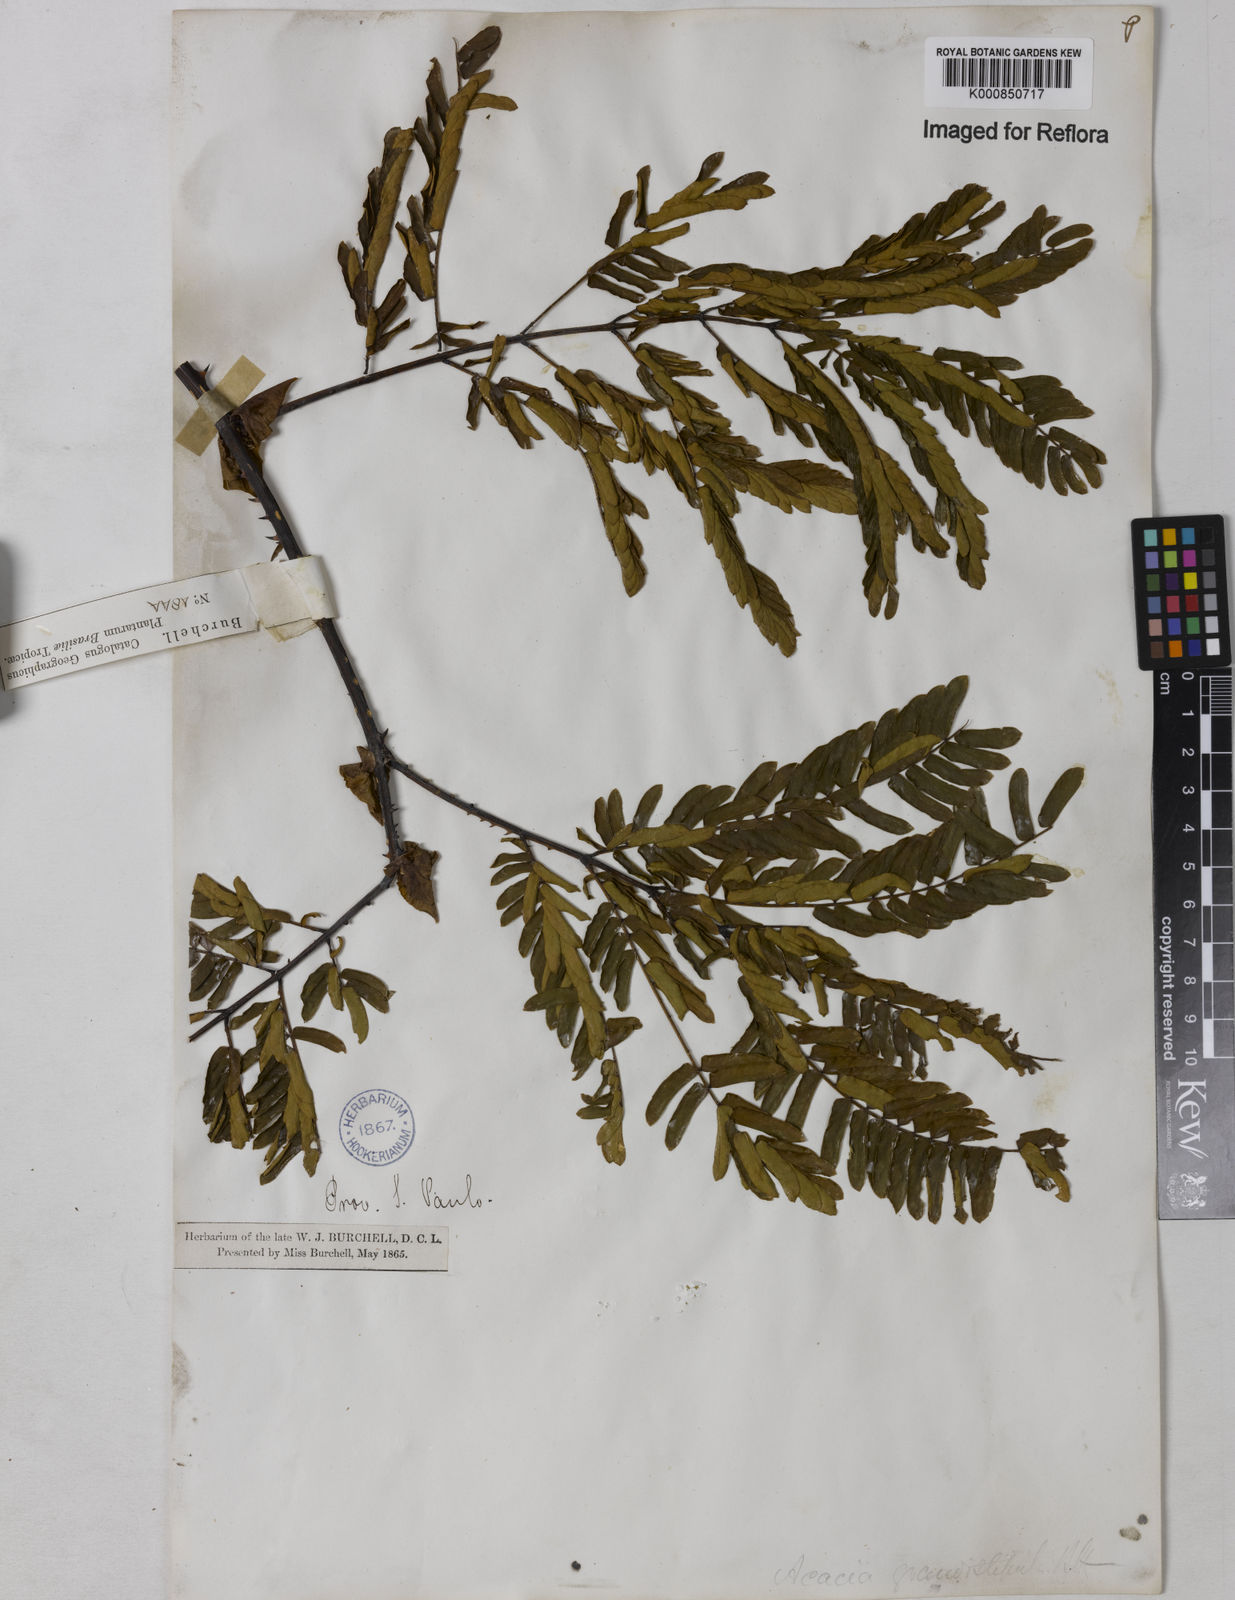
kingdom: Plantae
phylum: Tracheophyta
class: Magnoliopsida
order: Fabales
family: Fabaceae
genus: Senegalia
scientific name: Senegalia grandistipula
